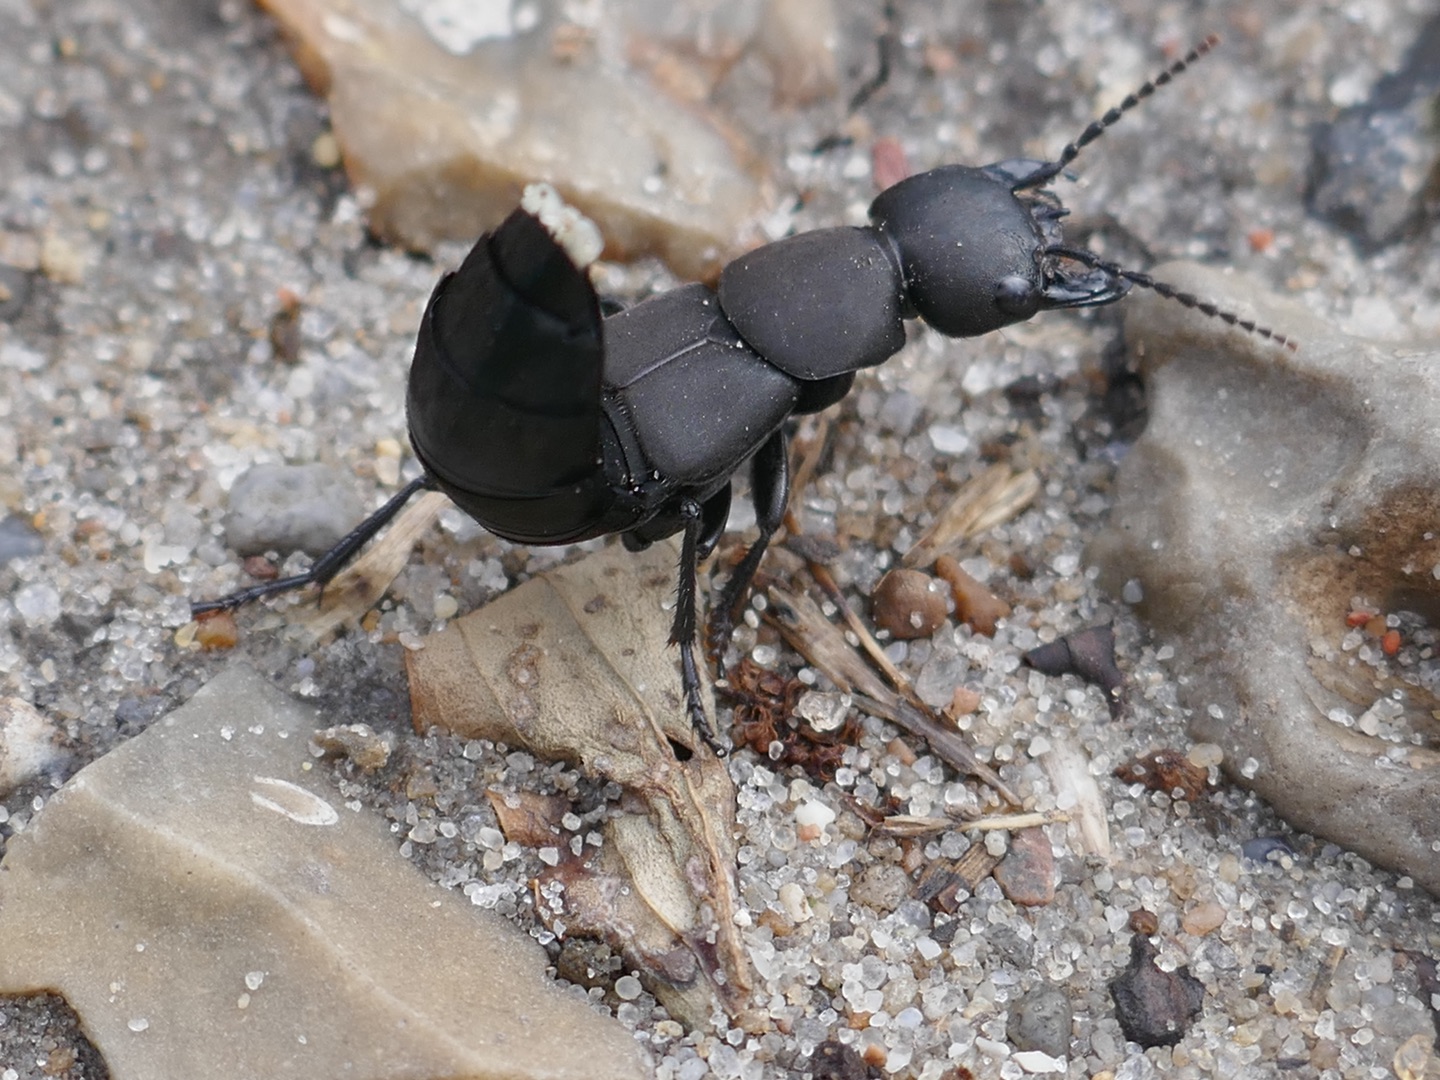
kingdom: Animalia
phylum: Arthropoda
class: Insecta
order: Coleoptera
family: Staphylinidae
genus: Ocypus
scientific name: Ocypus olens
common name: Stor rovbille
